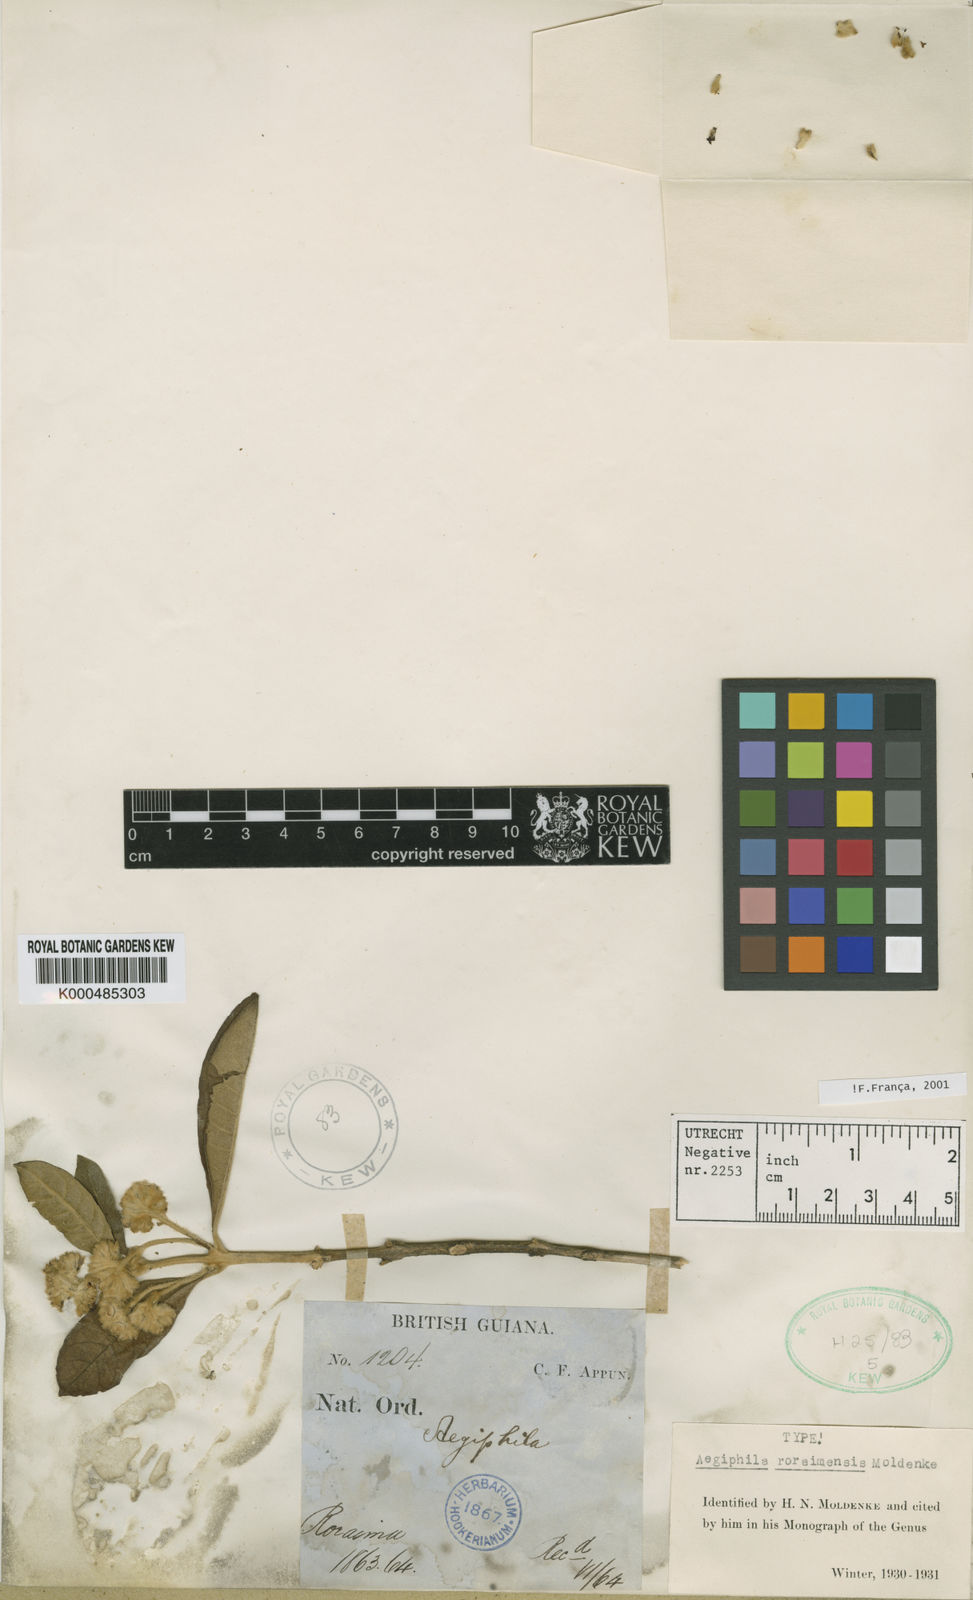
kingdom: Plantae
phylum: Tracheophyta
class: Magnoliopsida
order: Lamiales
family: Lamiaceae
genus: Aegiphila
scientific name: Aegiphila roraimensis
